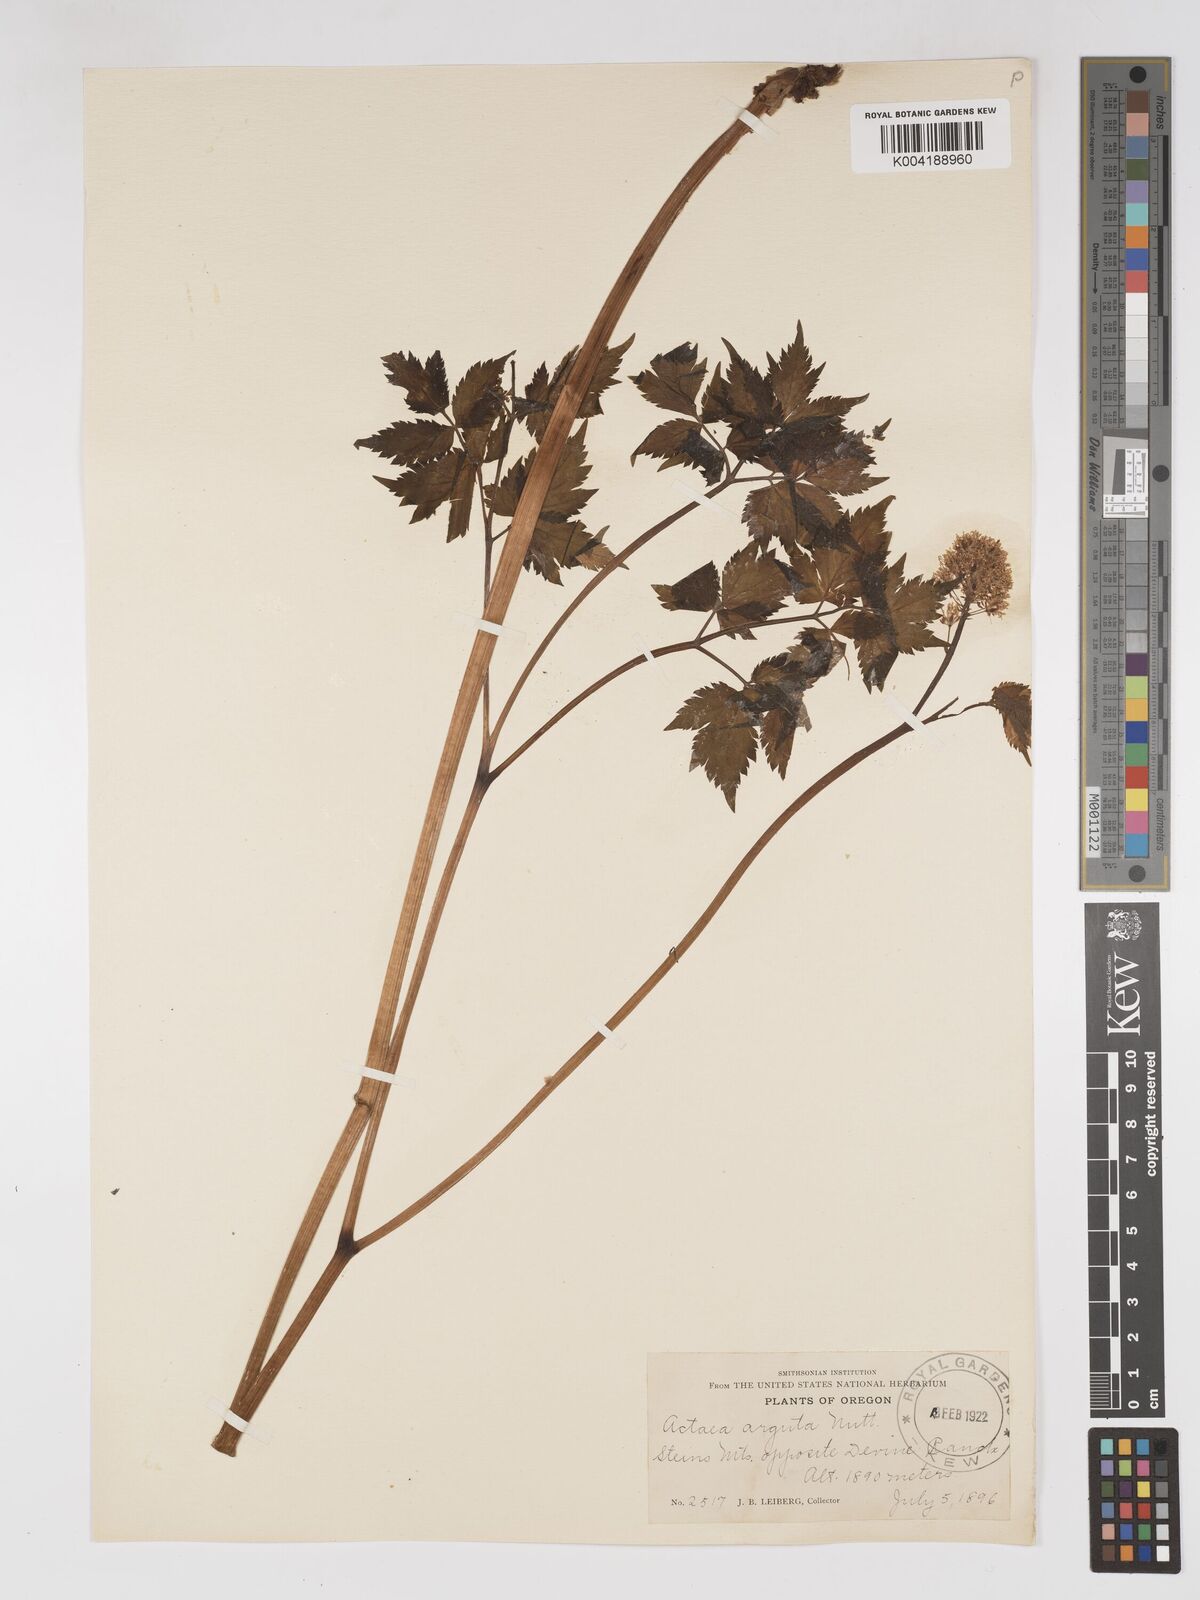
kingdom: Plantae
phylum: Tracheophyta
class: Magnoliopsida
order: Ranunculales
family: Ranunculaceae
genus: Actaea
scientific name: Actaea rubra
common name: Red baneberry
